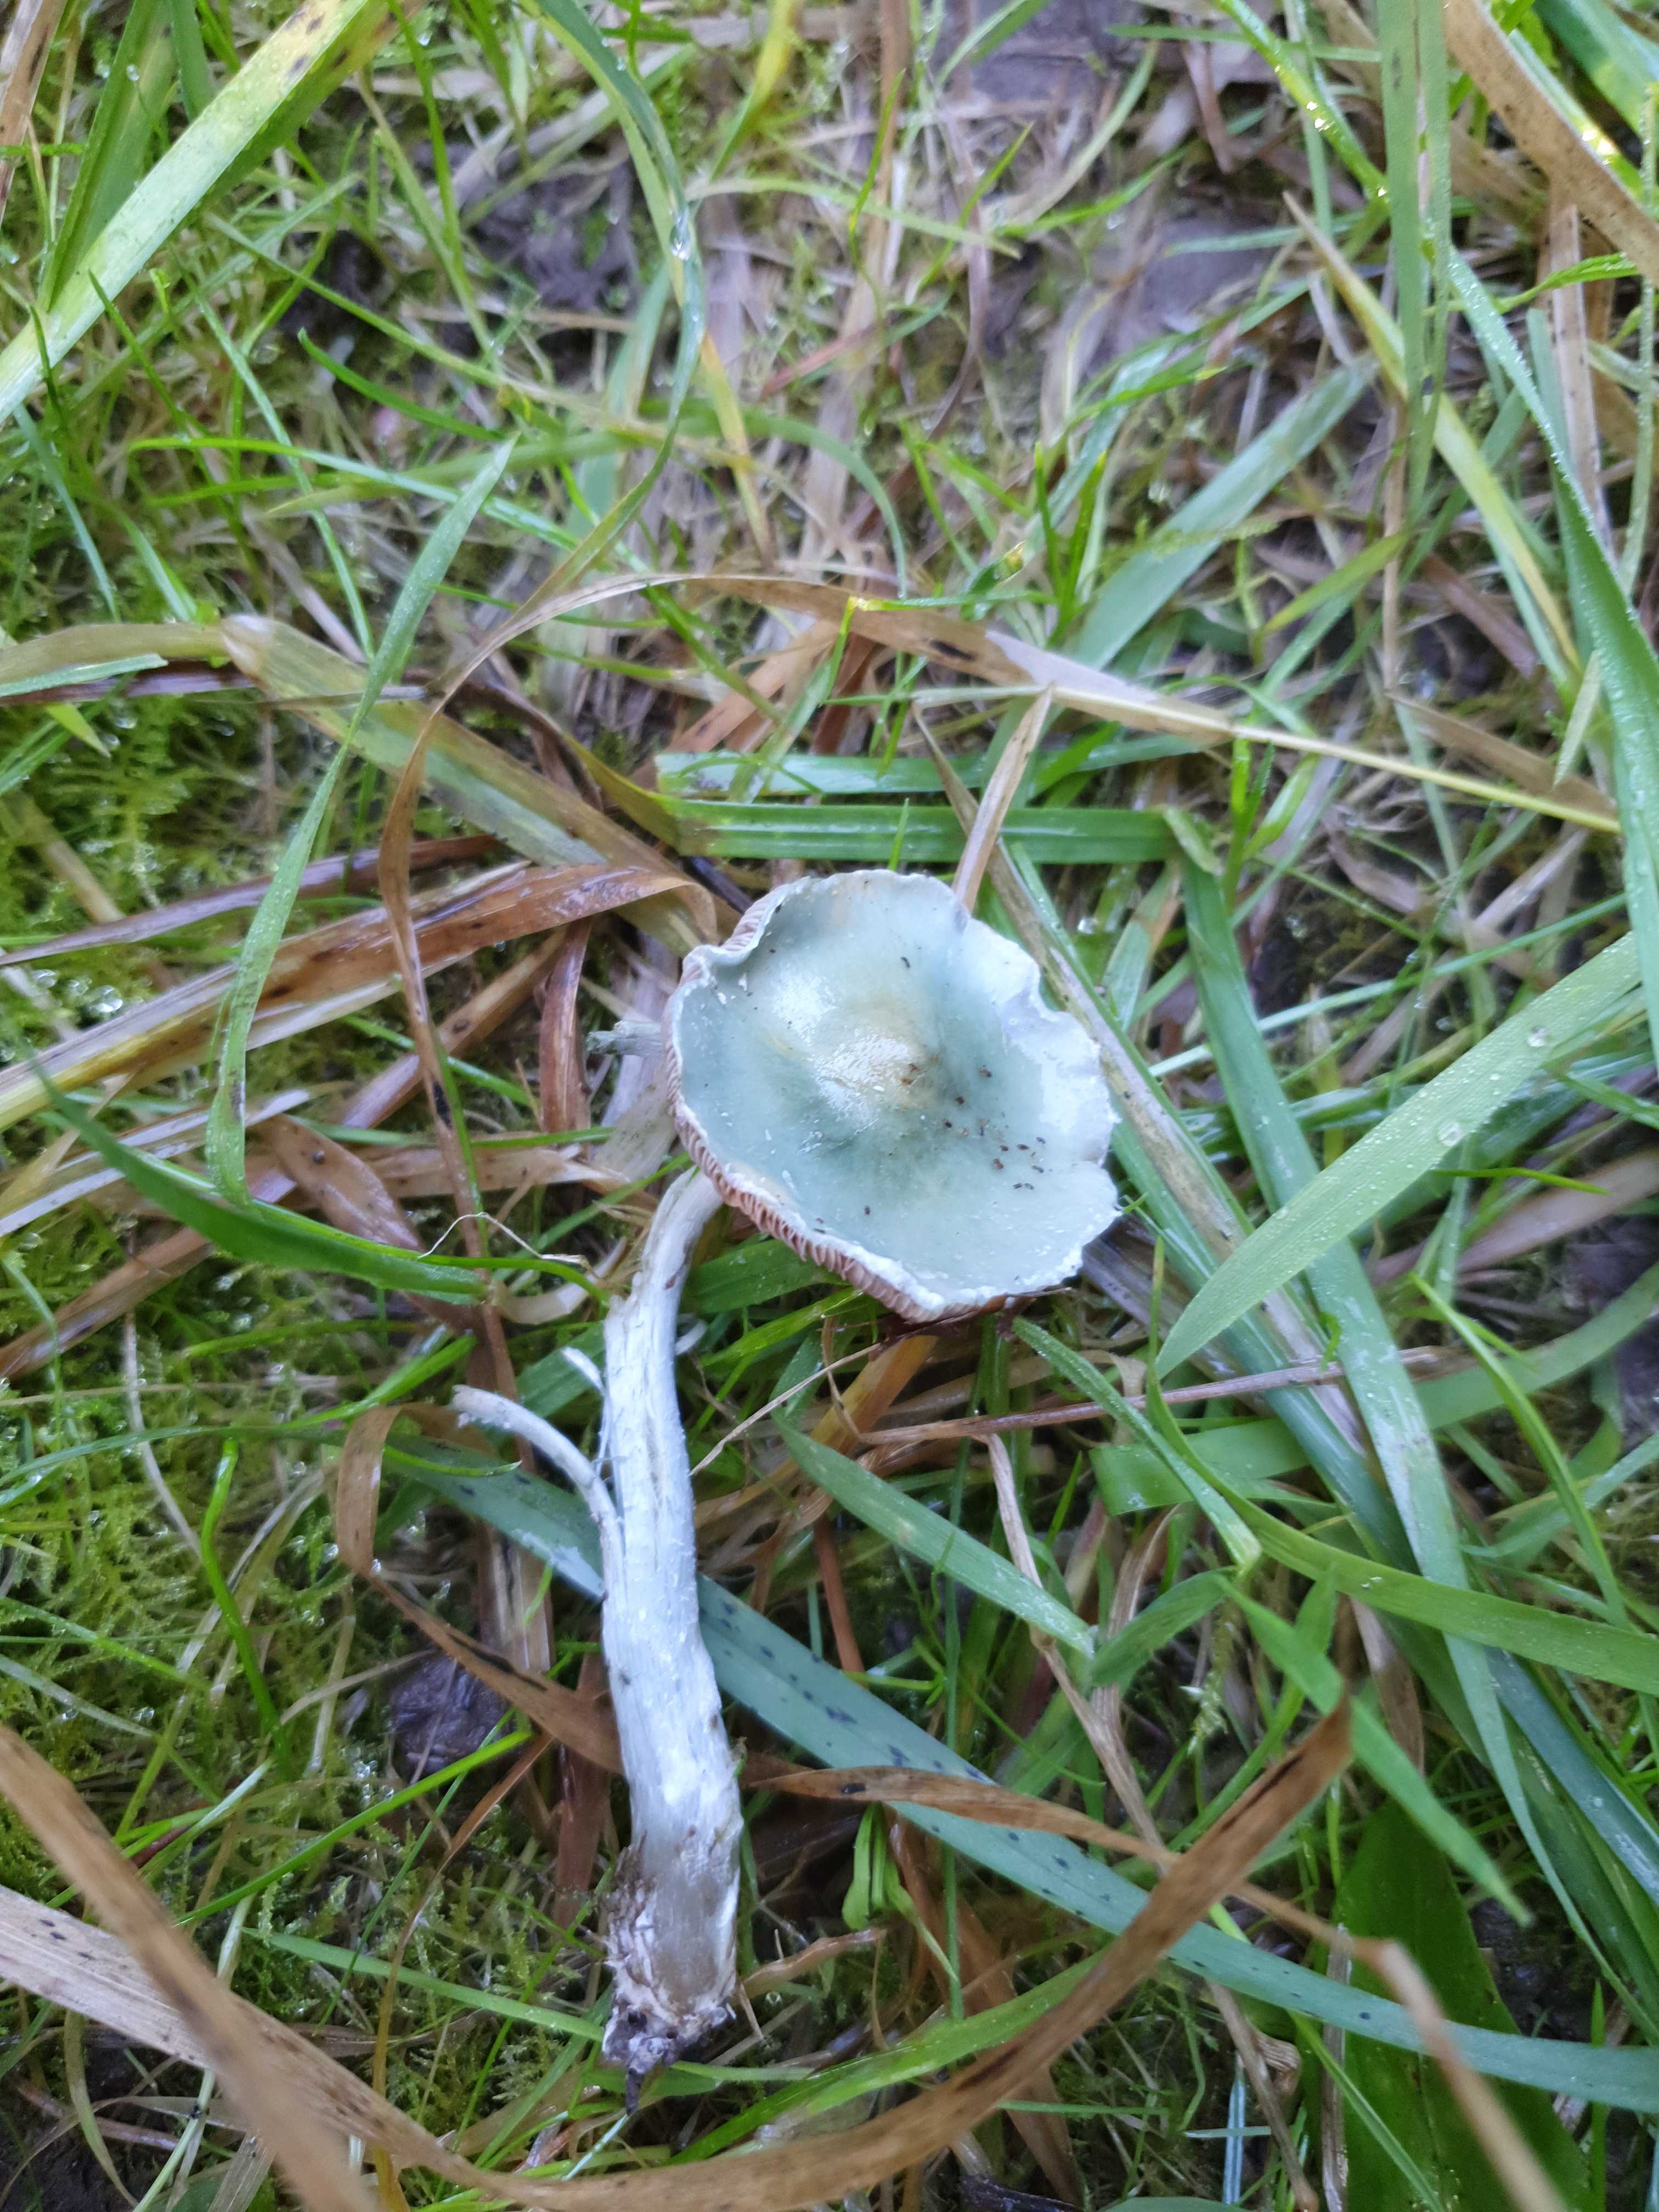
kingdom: Fungi
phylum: Basidiomycota
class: Agaricomycetes
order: Agaricales
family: Strophariaceae
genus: Stropharia
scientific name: Stropharia cyanea
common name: blågrøn bredblad
